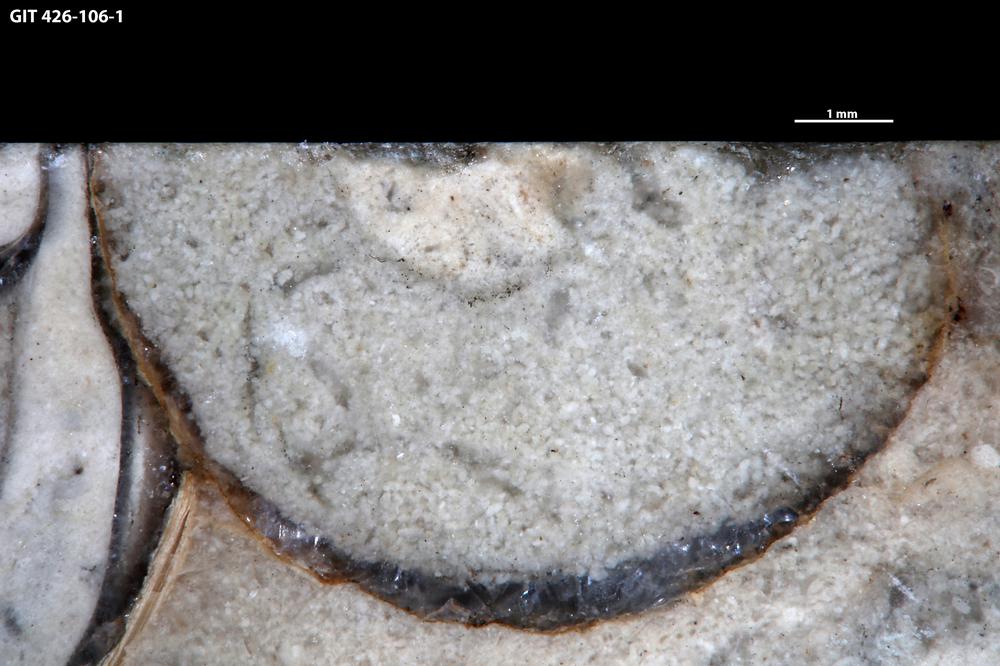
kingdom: Animalia
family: Coprulidae
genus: Coprulus
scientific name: Coprulus
